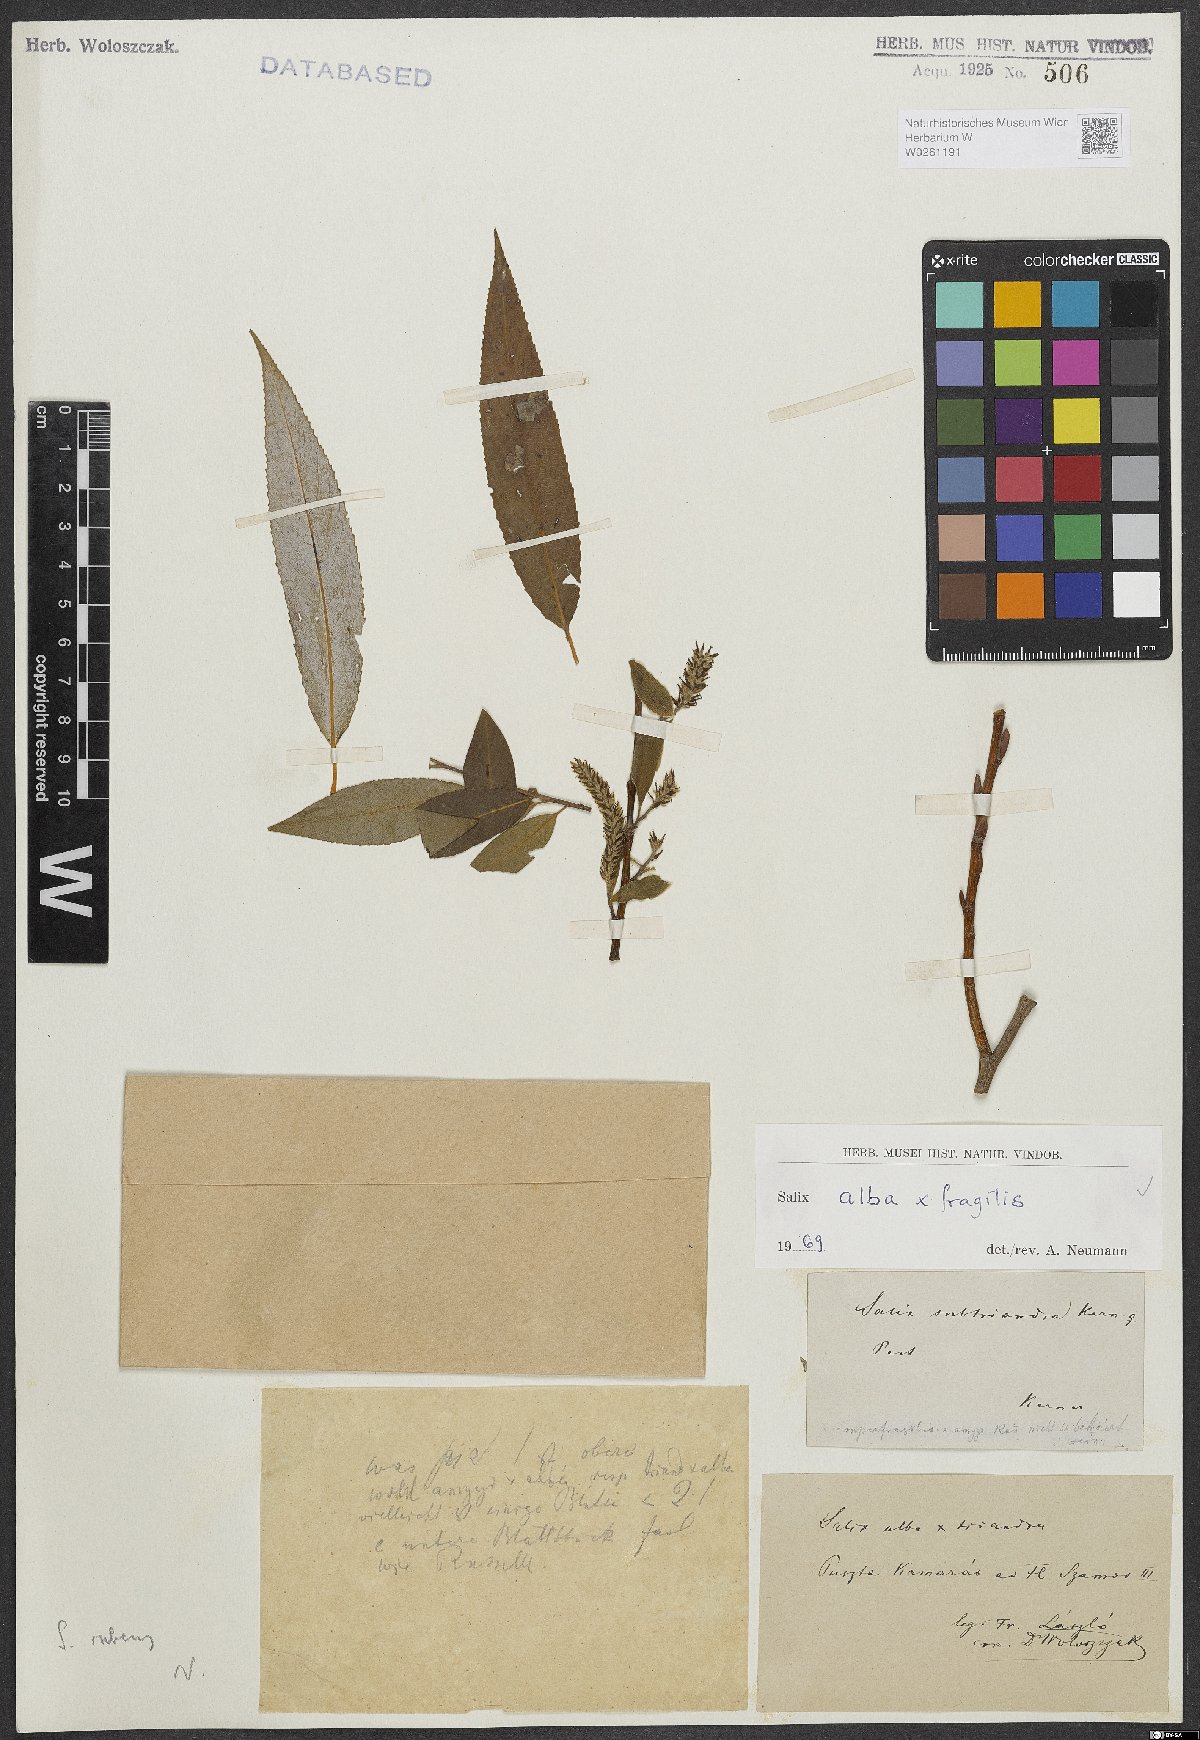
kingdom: Plantae
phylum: Tracheophyta
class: Magnoliopsida
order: Malpighiales
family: Salicaceae
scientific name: Salicaceae
